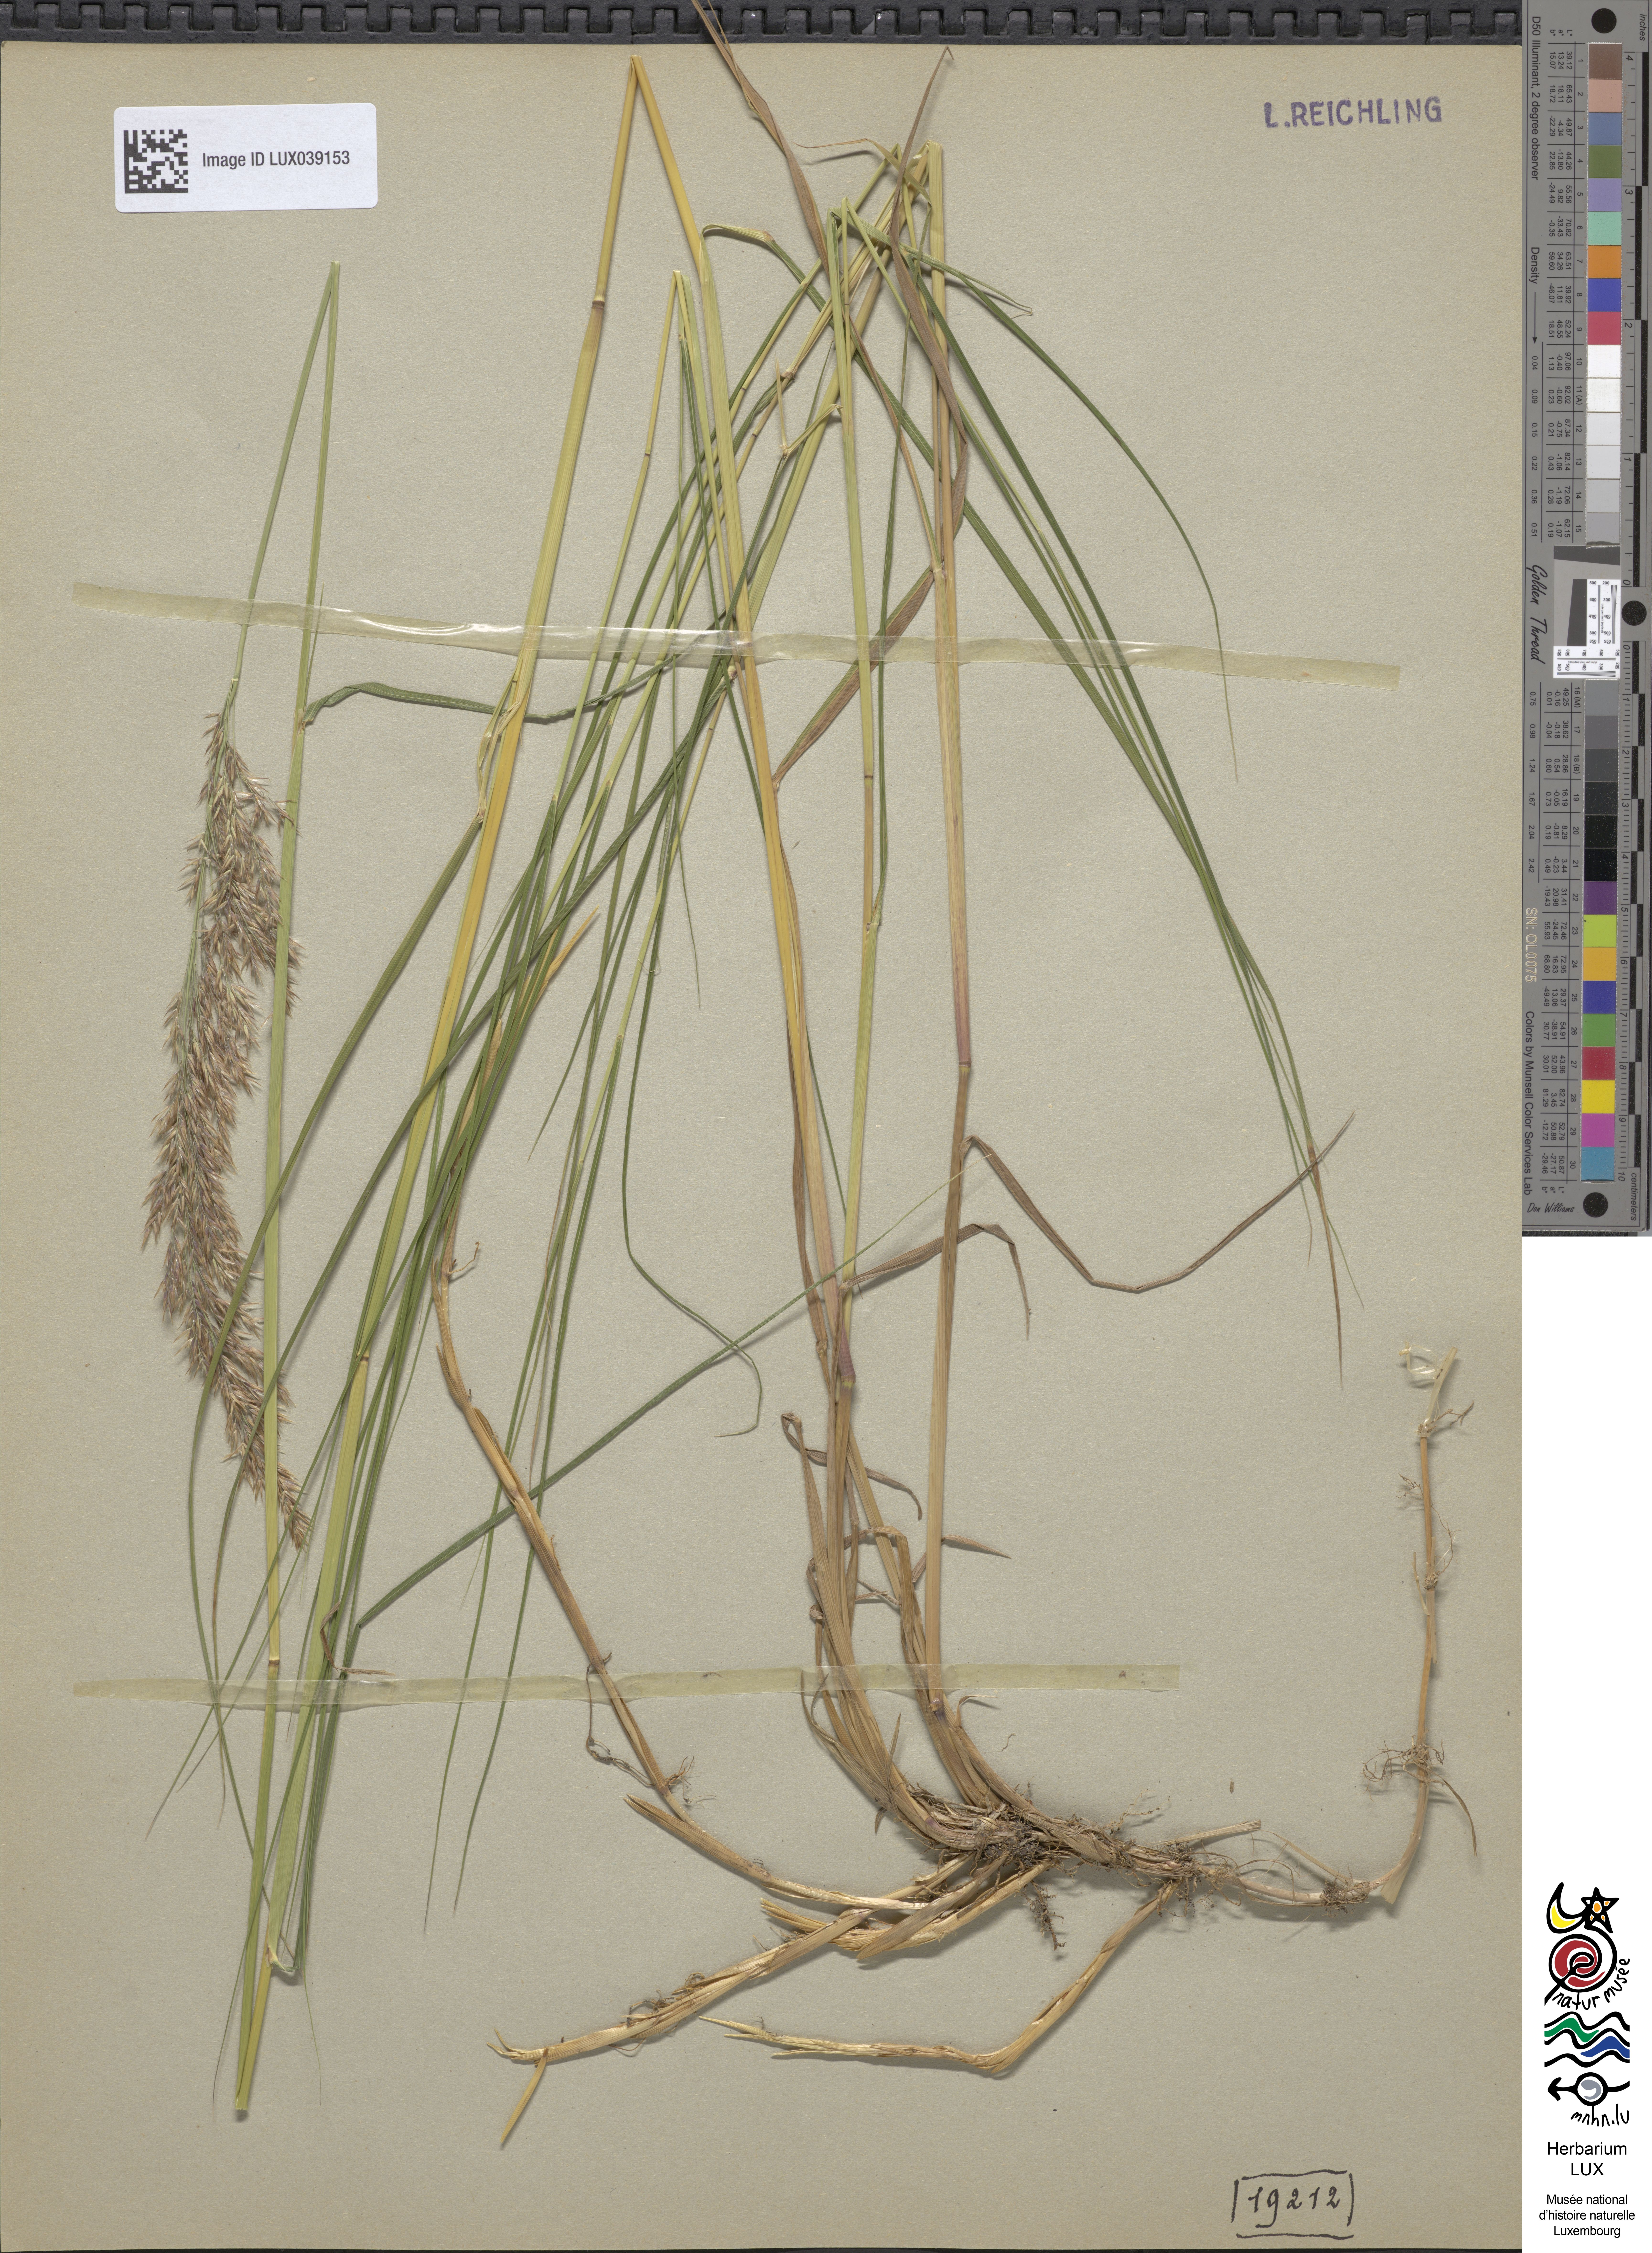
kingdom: Plantae
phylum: Tracheophyta
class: Liliopsida
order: Poales
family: Poaceae
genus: Calamagrostis
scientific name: Calamagrostis canescens
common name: Purple small-reed
